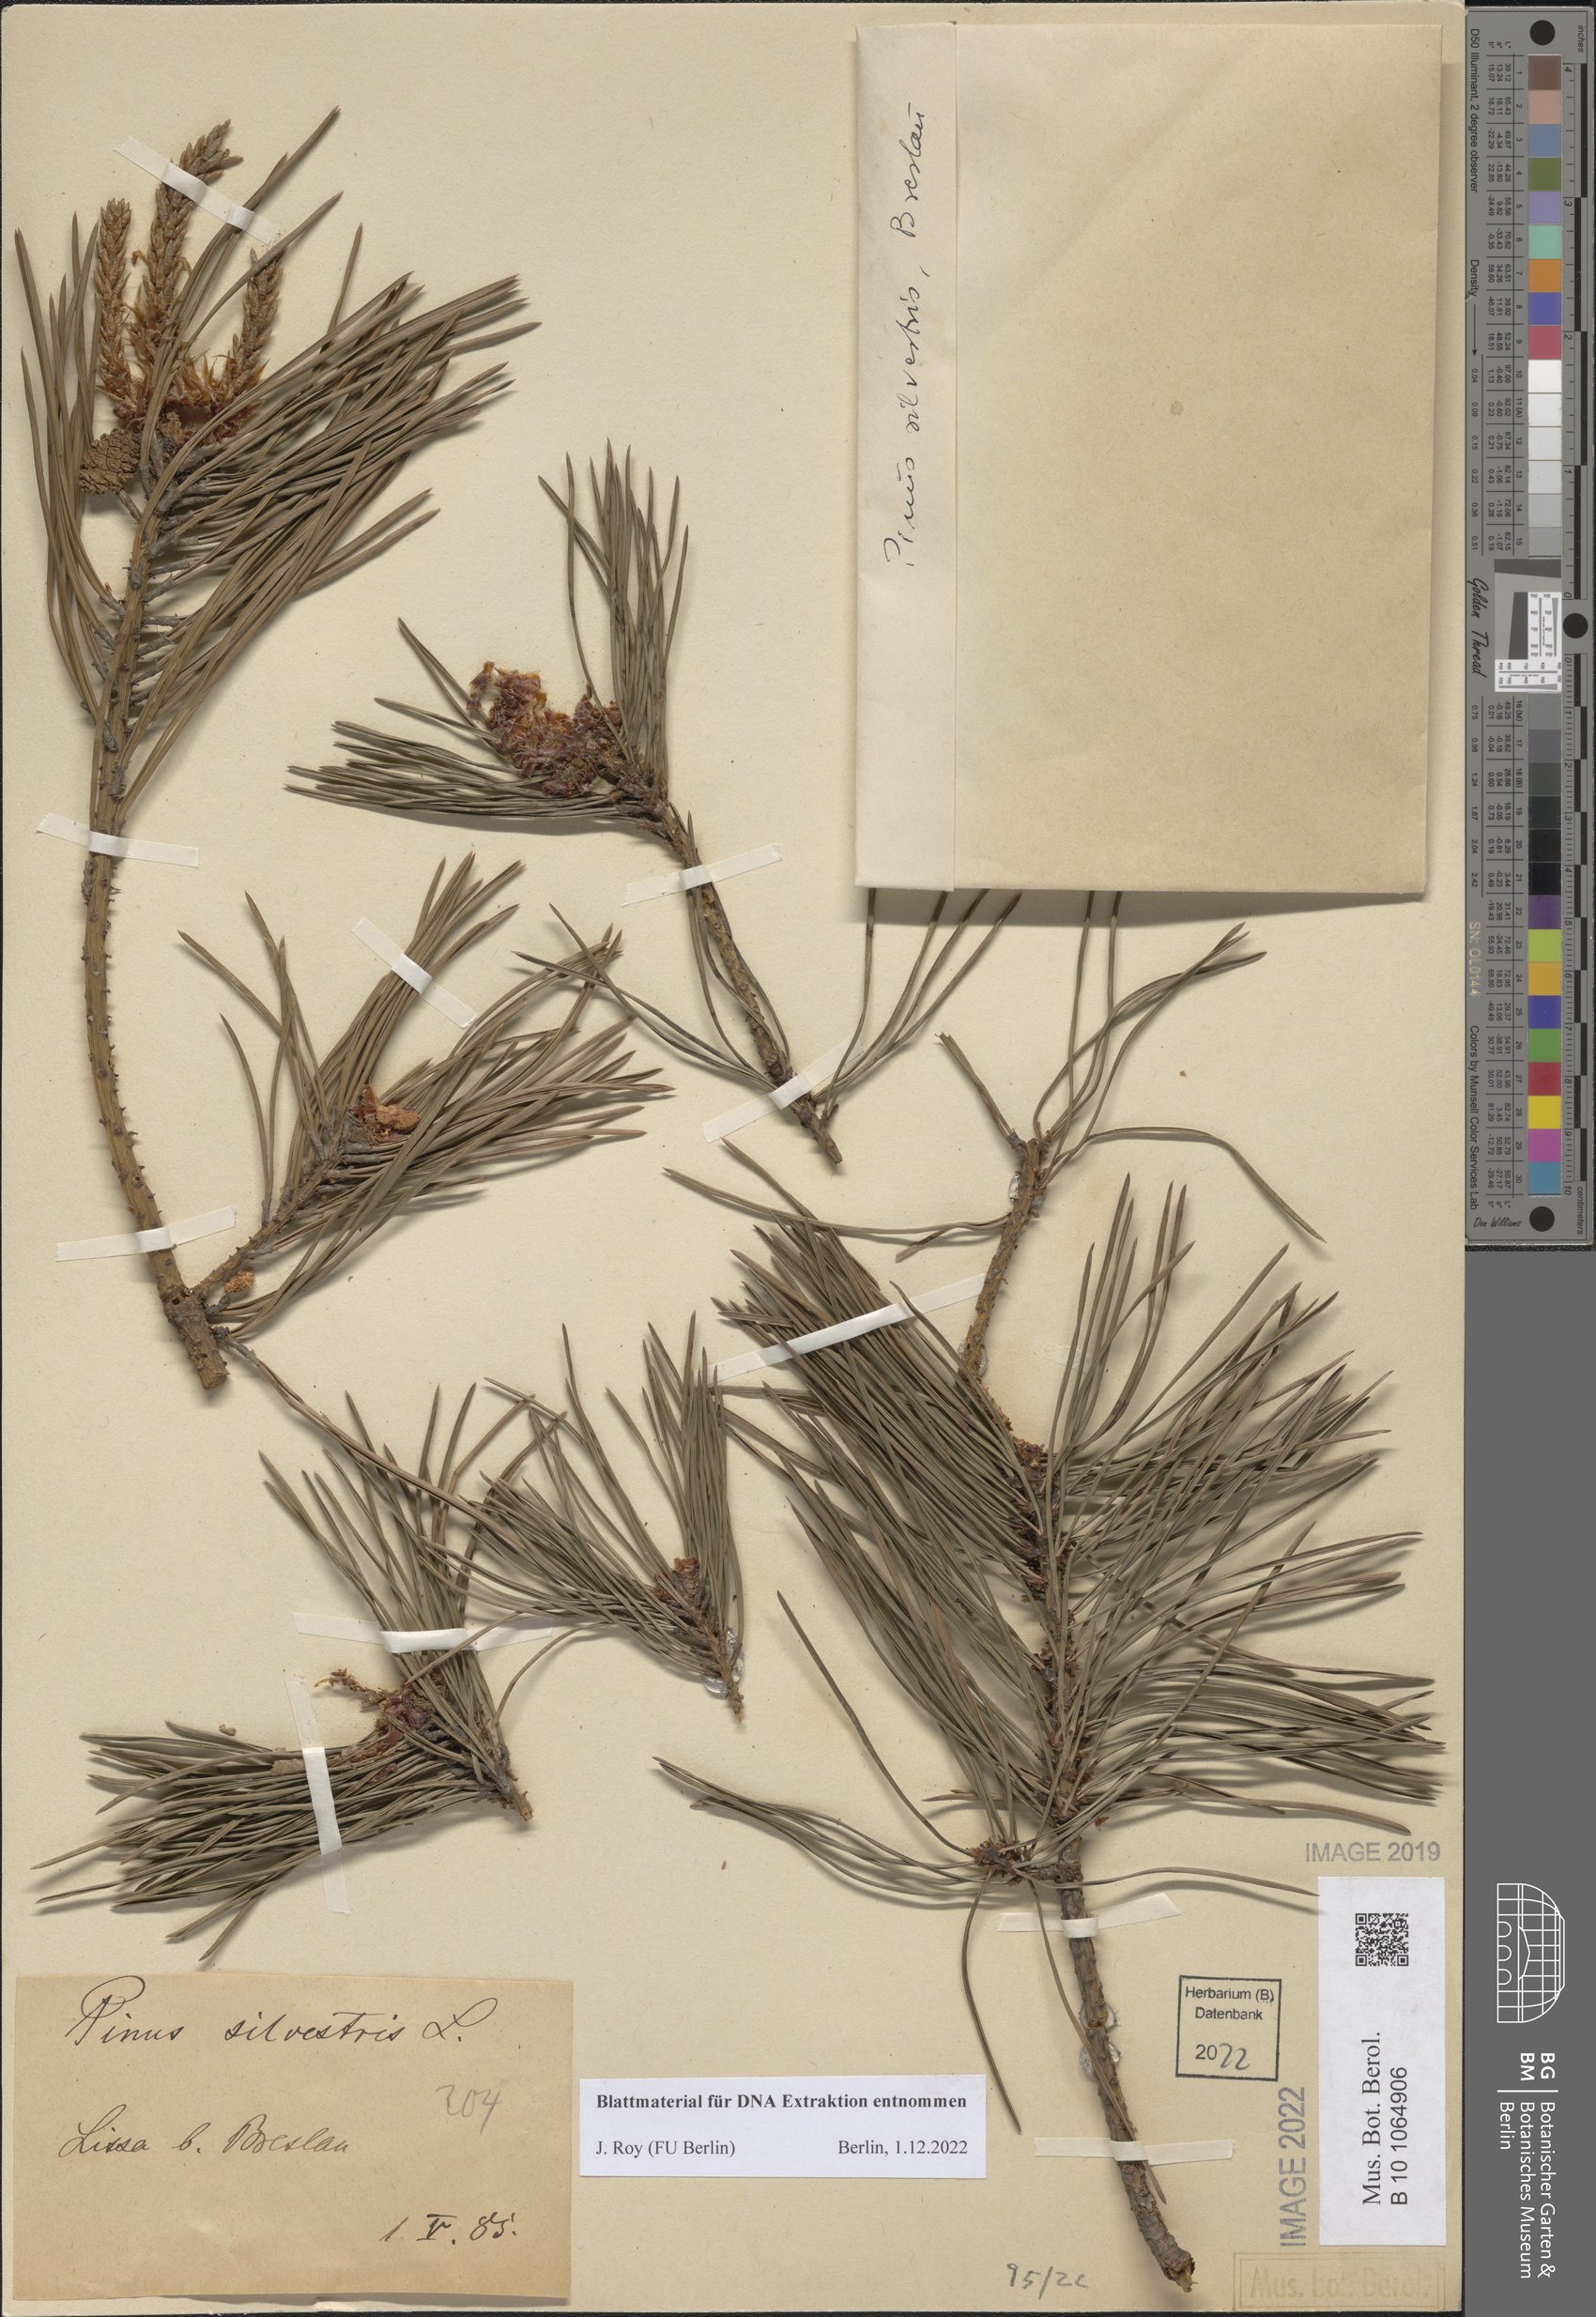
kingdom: Plantae
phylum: Tracheophyta
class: Pinopsida
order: Pinales
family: Pinaceae
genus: Pinus
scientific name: Pinus sylvestris
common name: Scots pine
